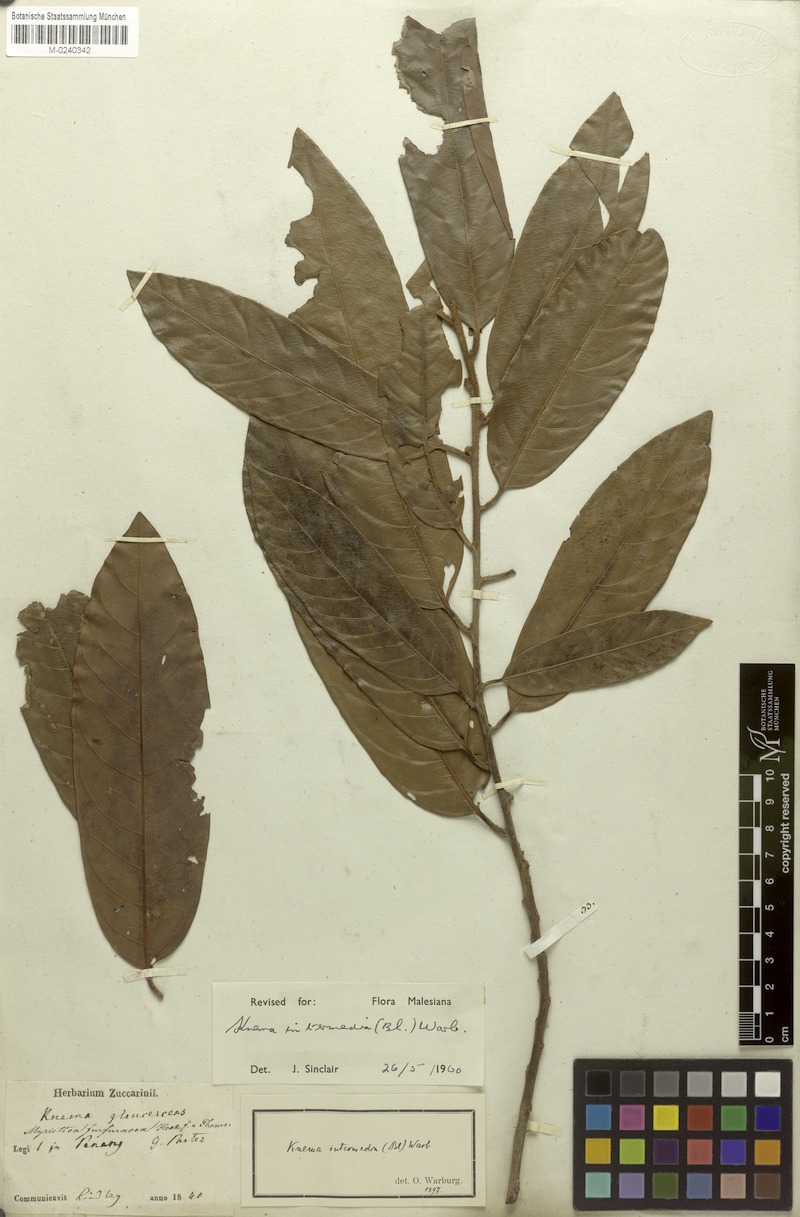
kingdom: Plantae
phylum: Tracheophyta
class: Magnoliopsida
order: Magnoliales
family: Myristicaceae
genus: Knema
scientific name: Knema intermedia
